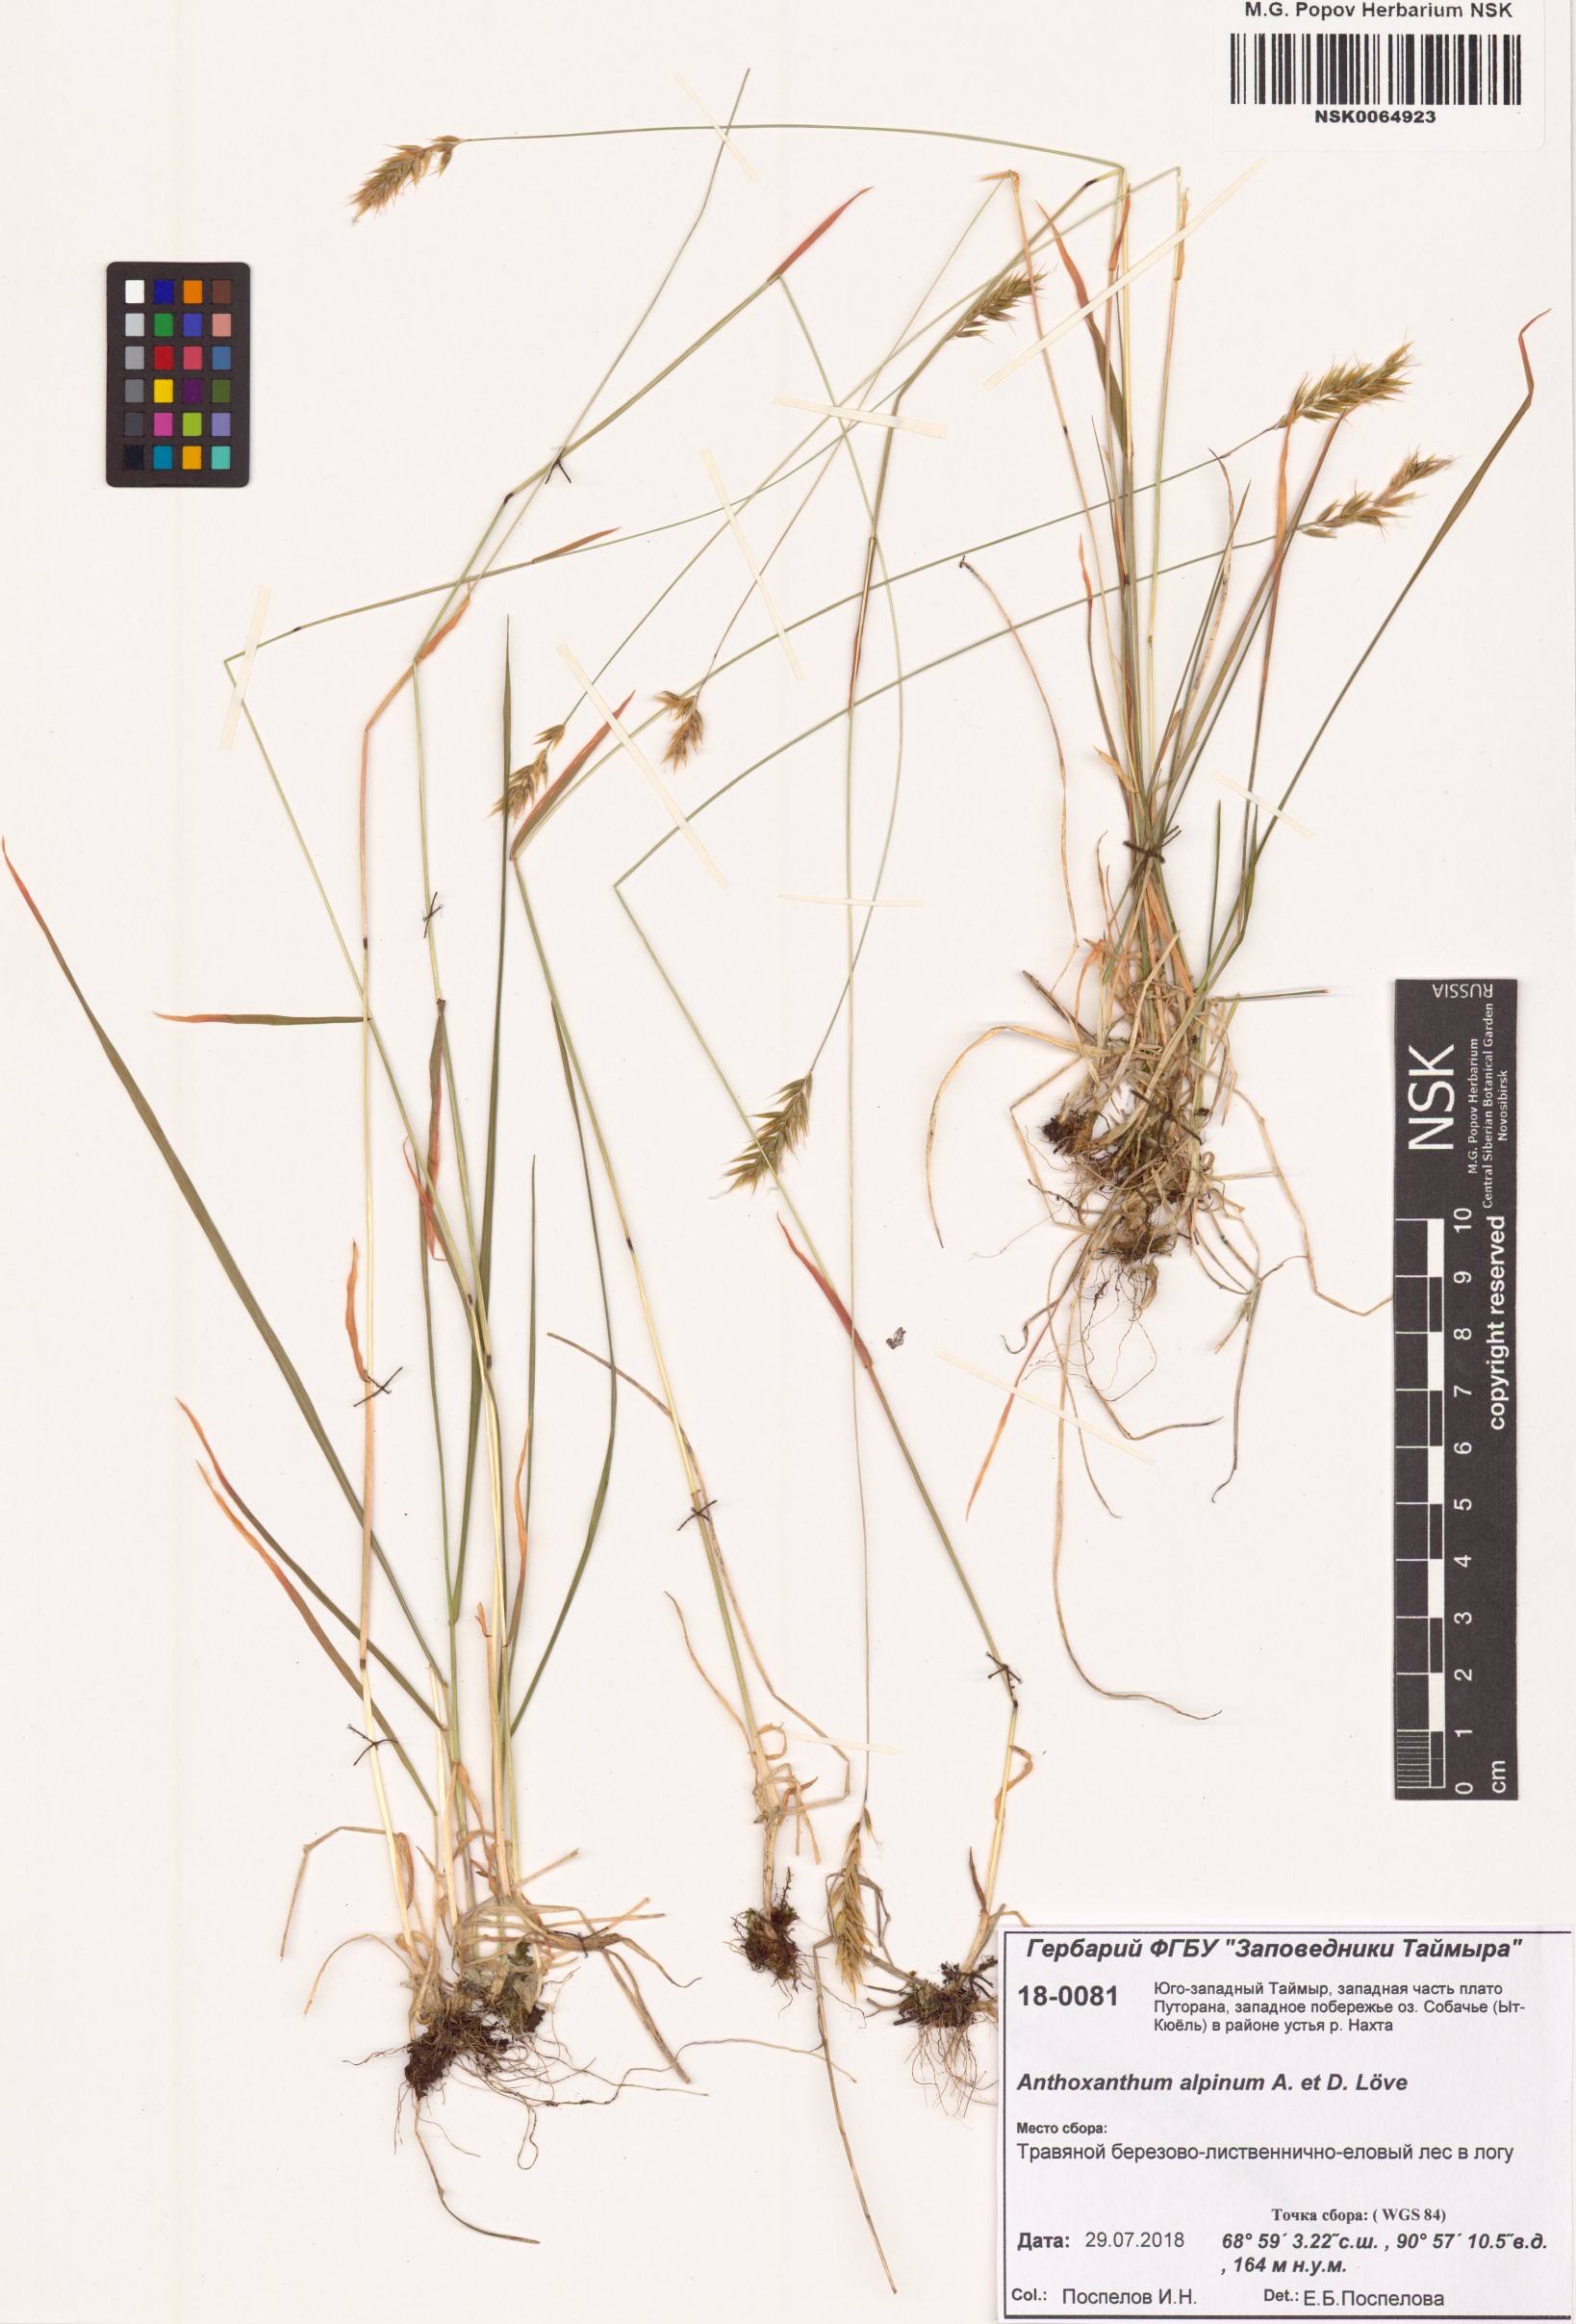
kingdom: Plantae
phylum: Tracheophyta
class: Liliopsida
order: Poales
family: Poaceae
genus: Anthoxanthum
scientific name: Anthoxanthum nipponicum
